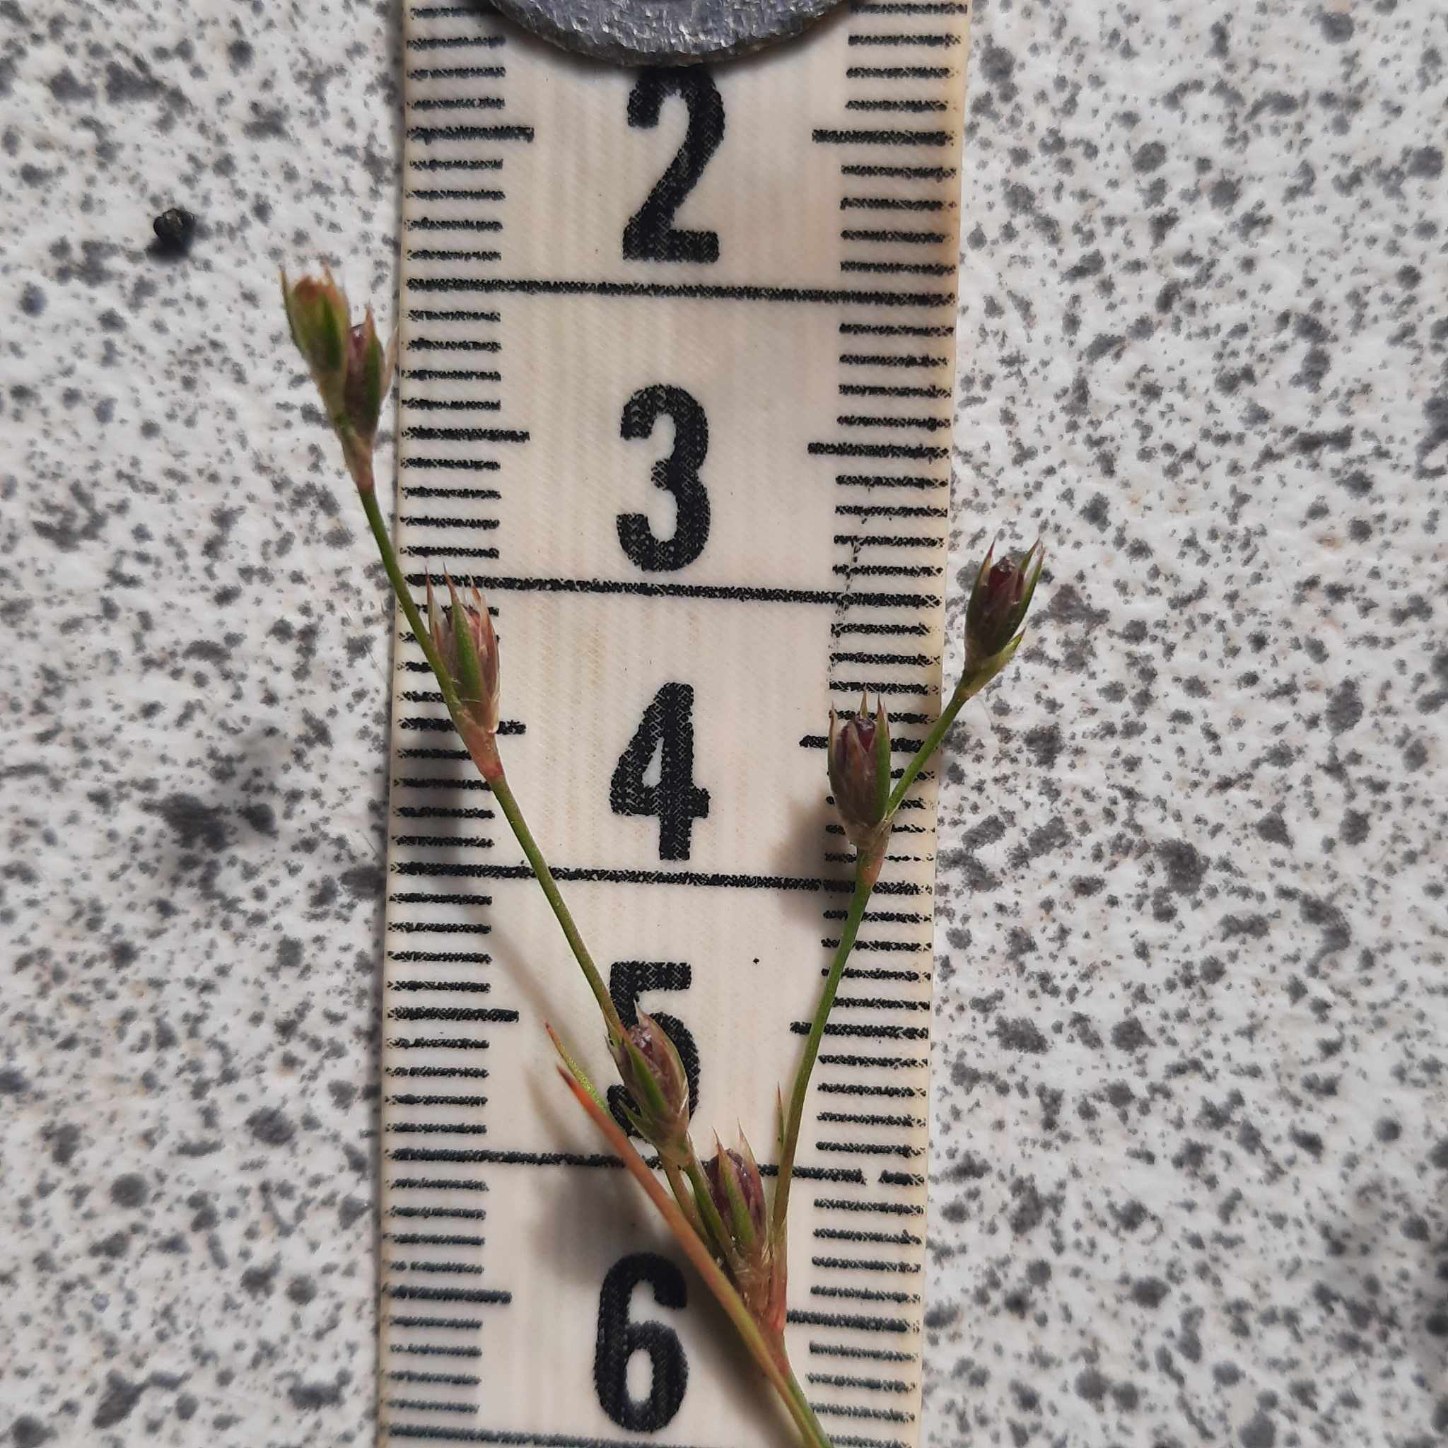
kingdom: Plantae
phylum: Tracheophyta
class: Liliopsida
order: Poales
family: Juncaceae
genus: Juncus
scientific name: Juncus bufonius
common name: Tudse-siv
